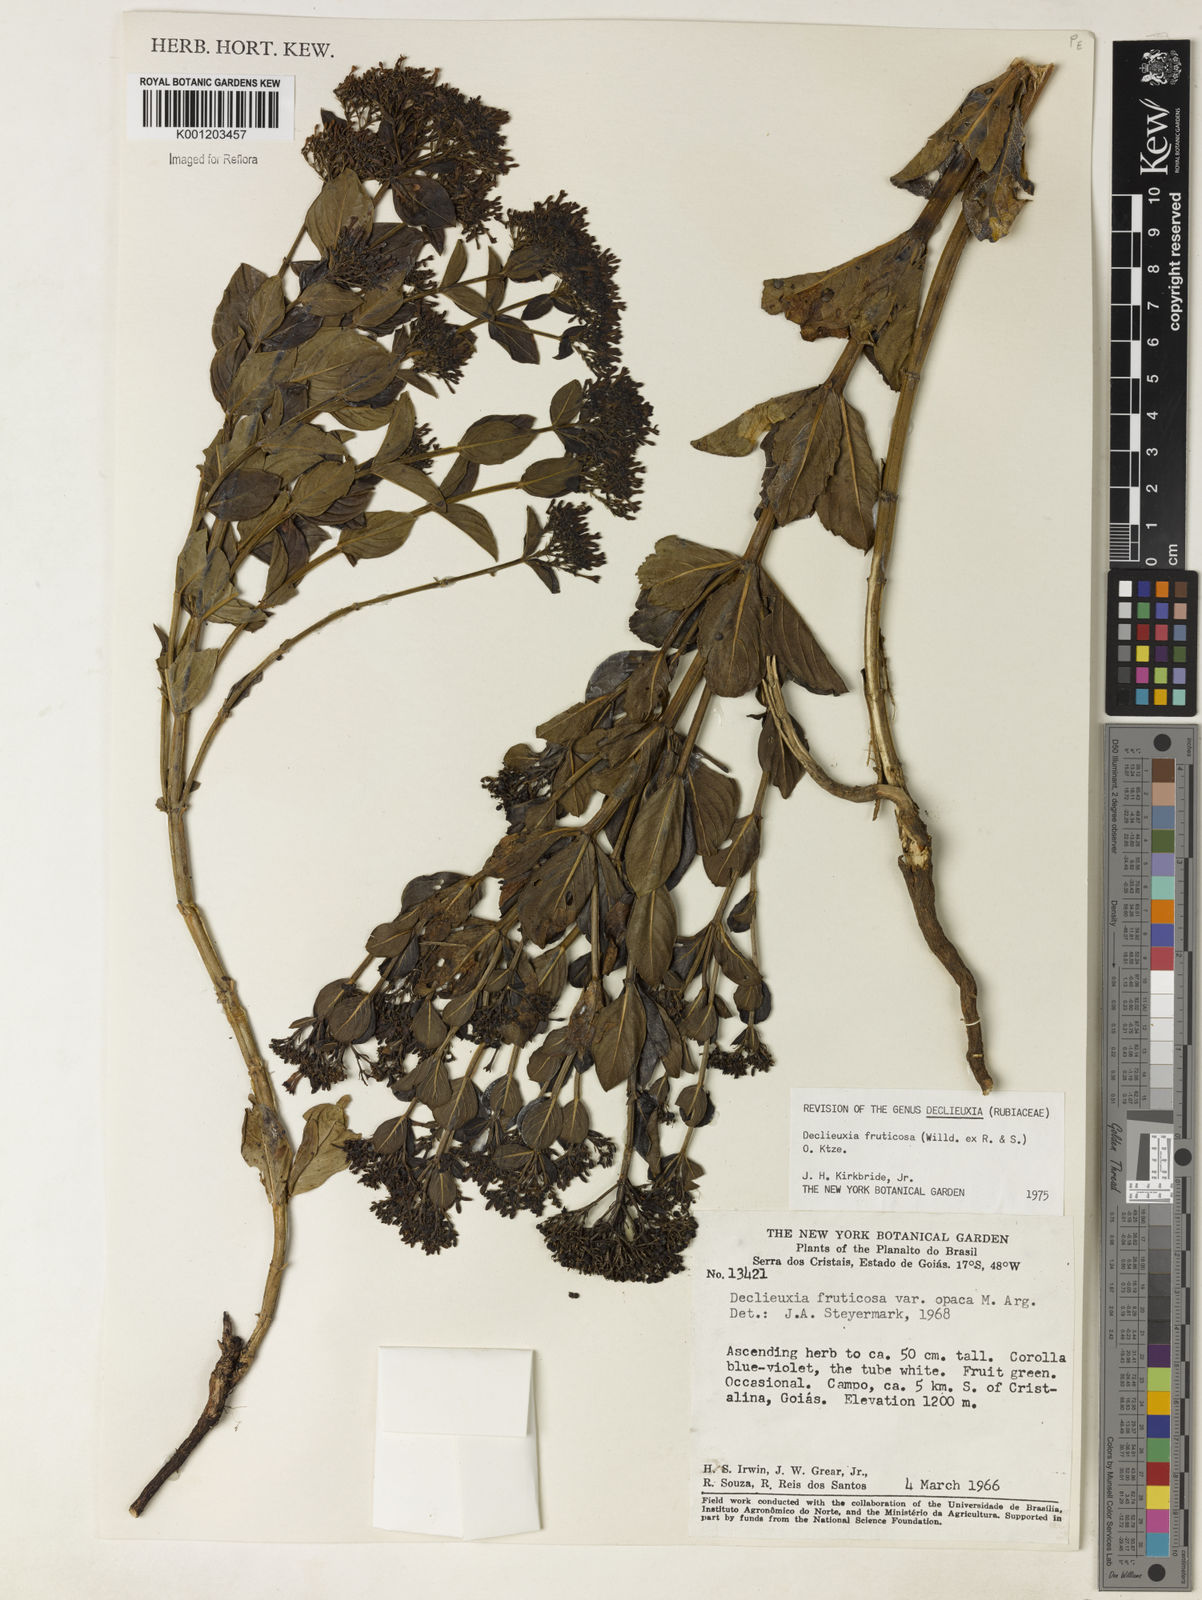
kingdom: Plantae
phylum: Tracheophyta
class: Magnoliopsida
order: Gentianales
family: Rubiaceae
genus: Declieuxia
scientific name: Declieuxia fruticosa
